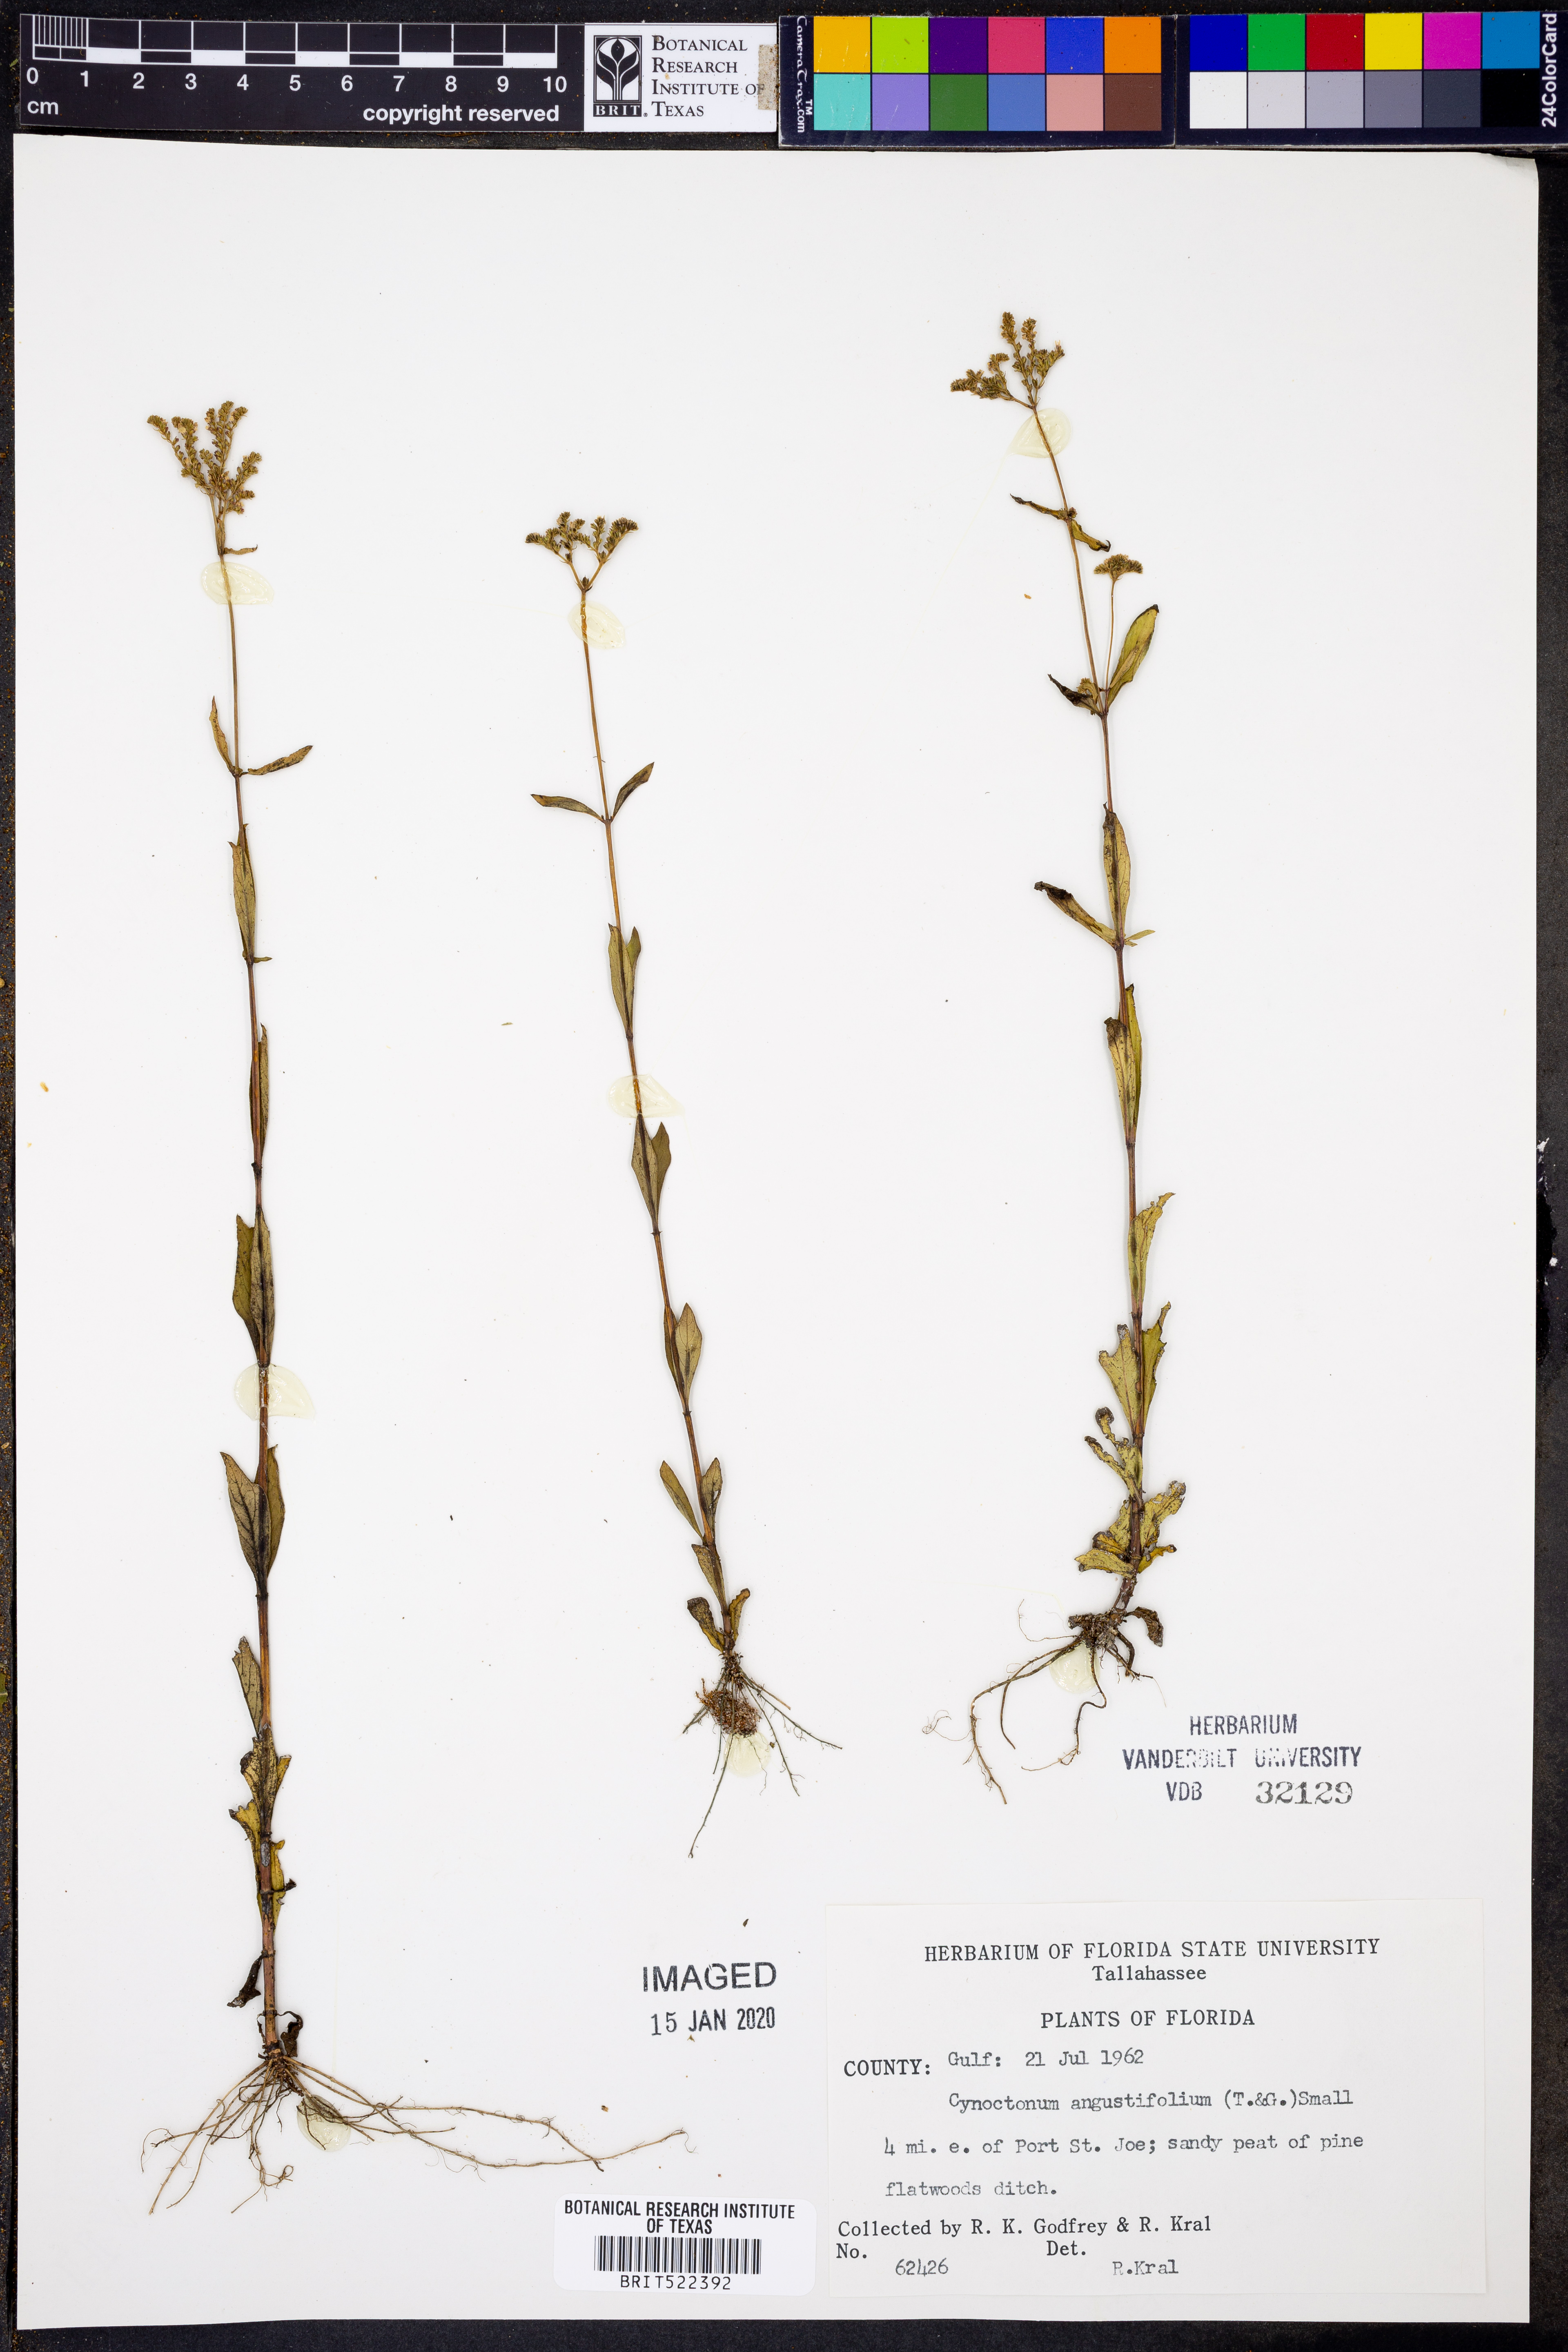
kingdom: Plantae
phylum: Tracheophyta
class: Magnoliopsida
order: Gentianales
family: Loganiaceae
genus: Mitreola
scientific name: Mitreola sessilifolia
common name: Swamp hornpod
